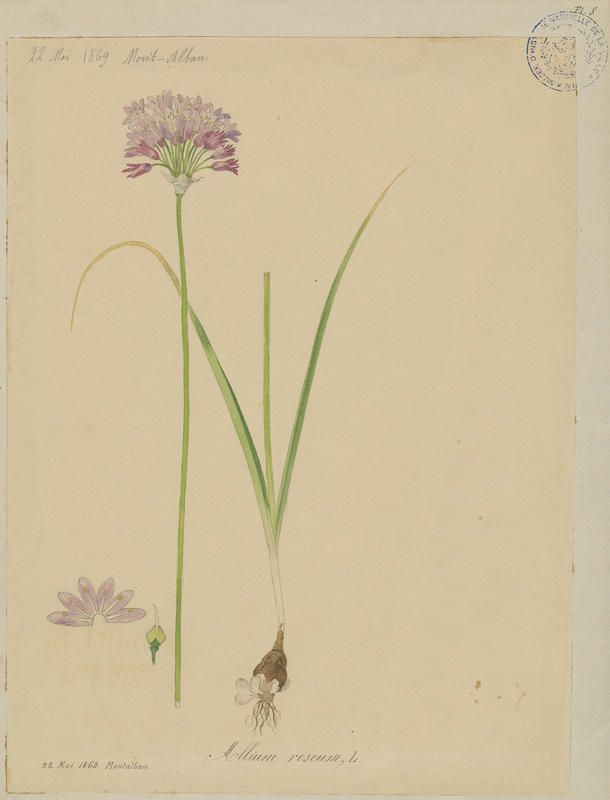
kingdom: Plantae
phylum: Tracheophyta
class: Liliopsida
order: Asparagales
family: Amaryllidaceae
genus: Allium
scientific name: Allium roseum
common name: Rosy garlic
